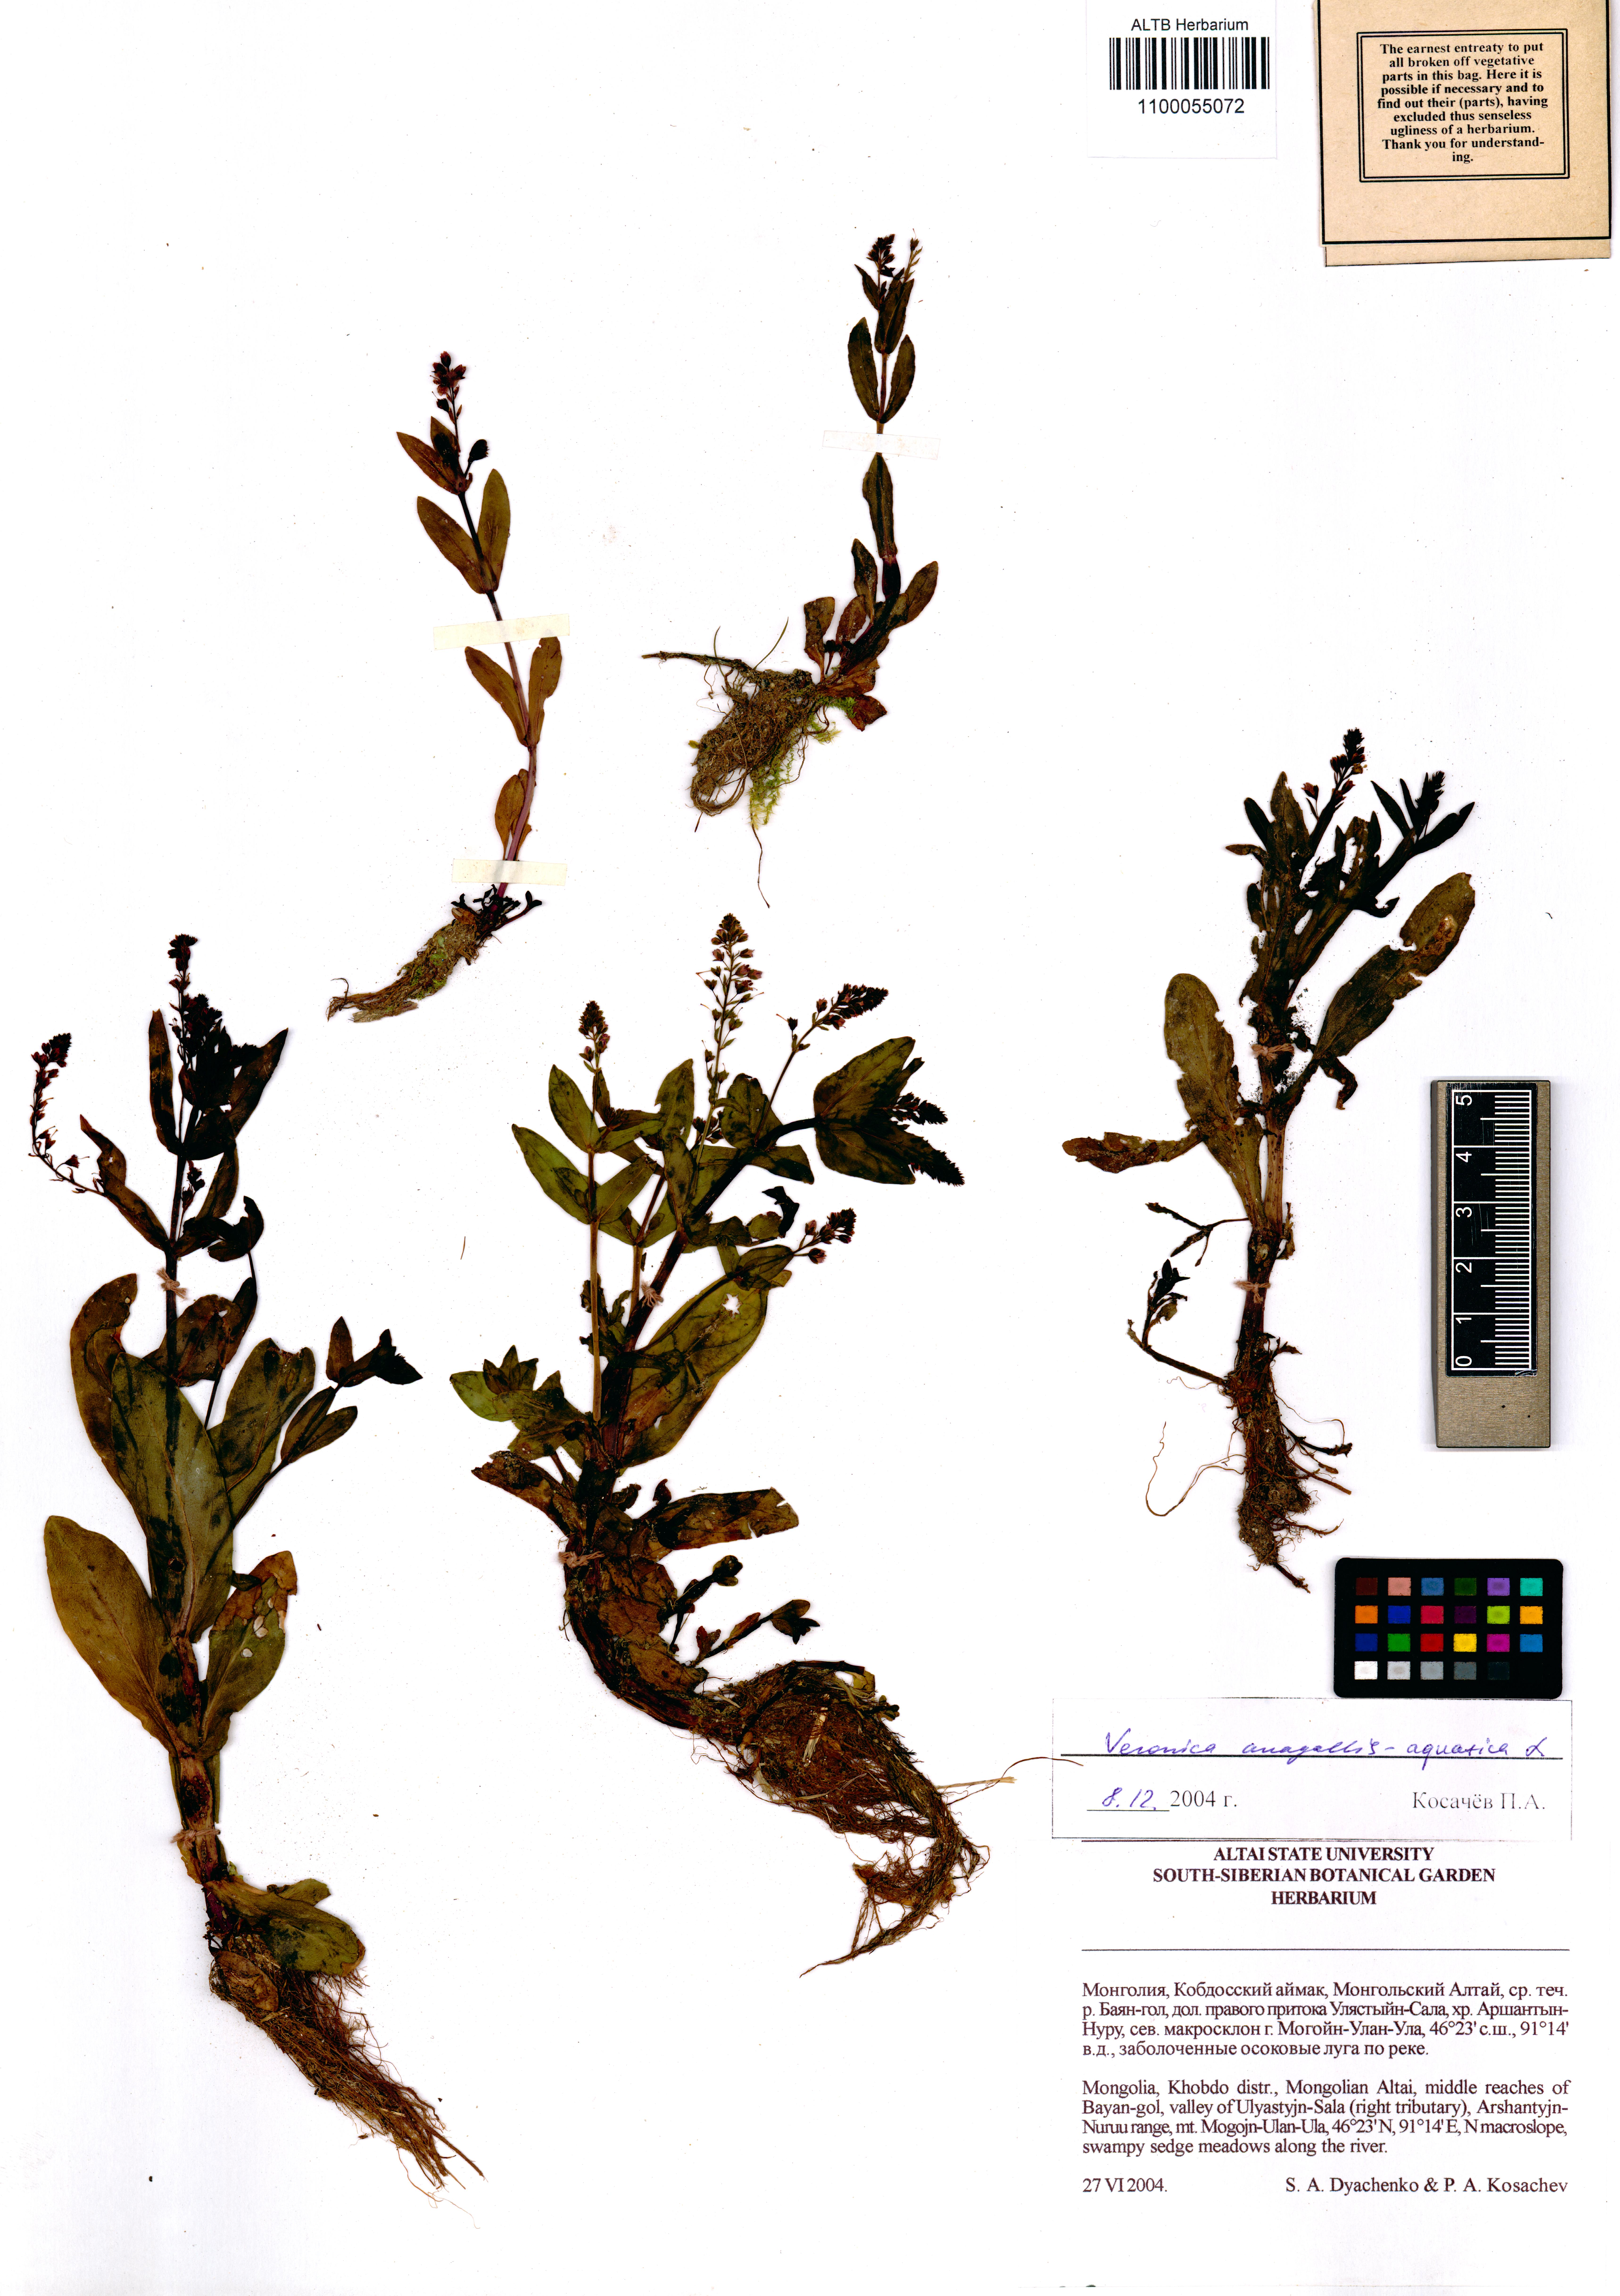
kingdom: Plantae
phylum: Tracheophyta
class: Magnoliopsida
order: Lamiales
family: Plantaginaceae
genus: Veronica
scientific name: Veronica anagallis-aquatica
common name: Water speedwell
